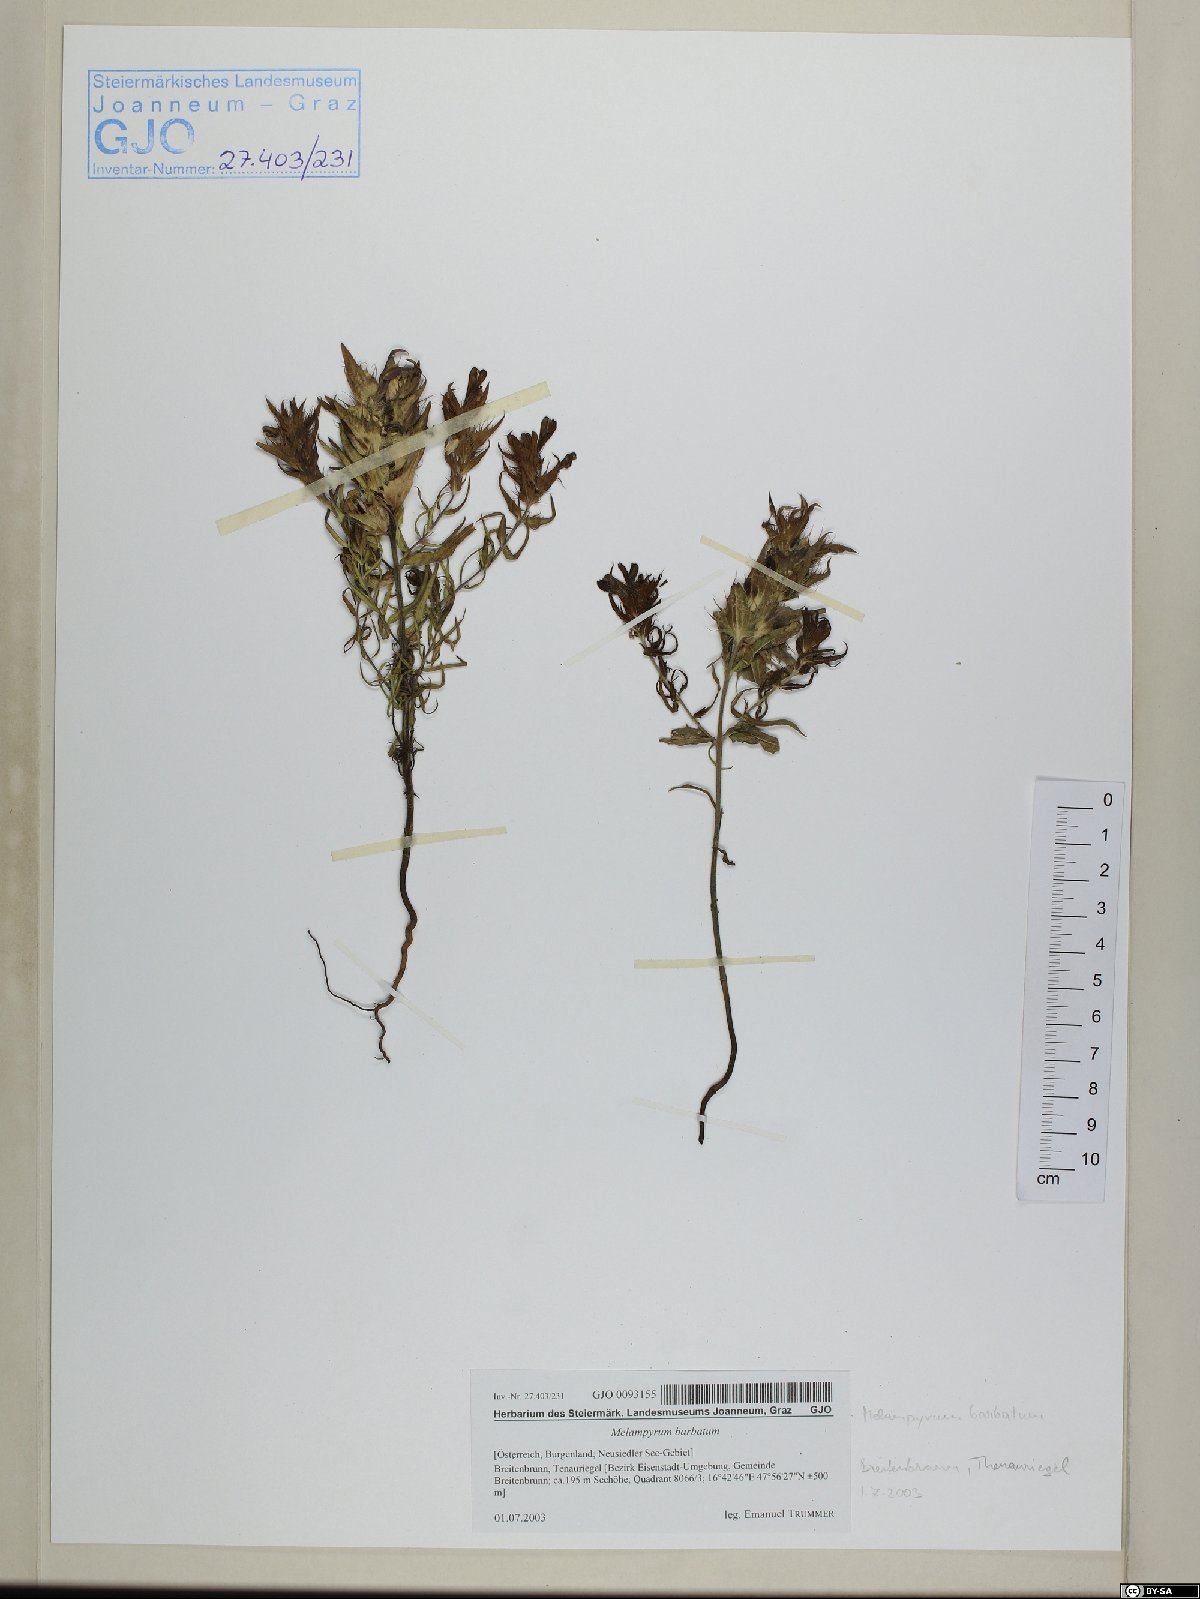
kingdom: Plantae
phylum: Tracheophyta
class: Magnoliopsida
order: Lamiales
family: Orobanchaceae
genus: Melampyrum
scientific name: Melampyrum barbatum
